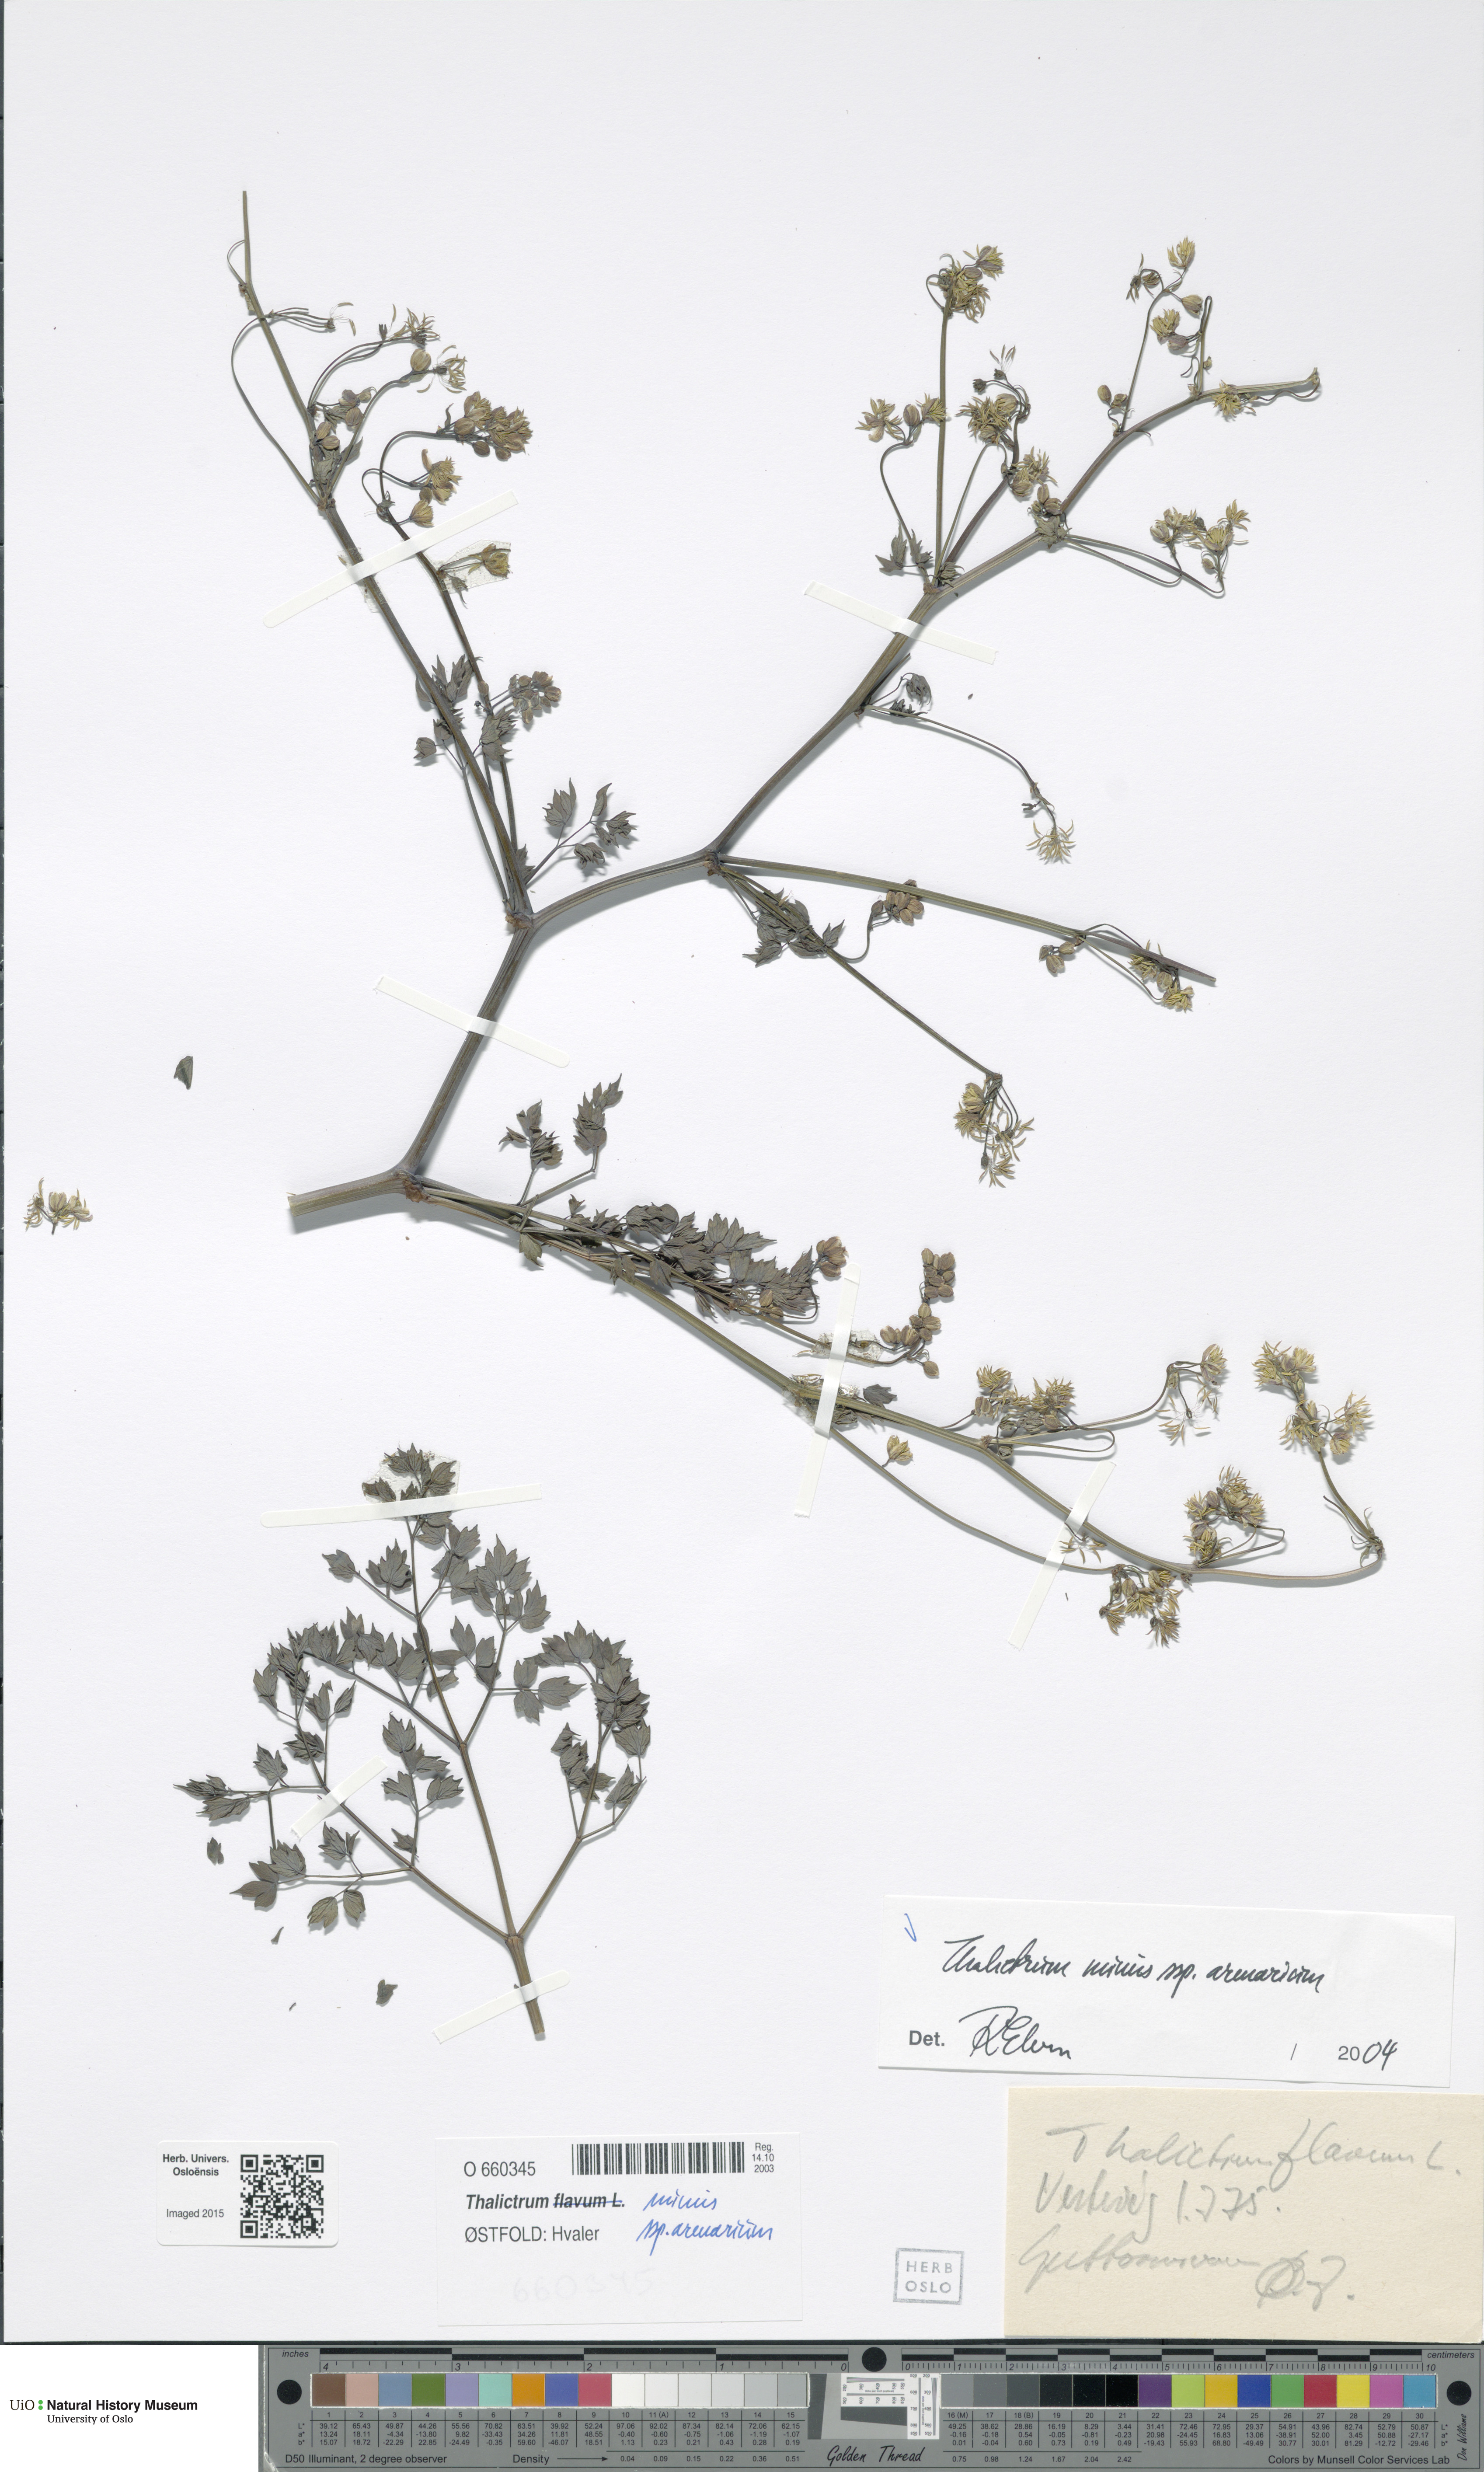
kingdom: Plantae
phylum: Tracheophyta
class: Magnoliopsida
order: Ranunculales
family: Ranunculaceae
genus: Thalictrum
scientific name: Thalictrum minus
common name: Lesser meadow-rue
